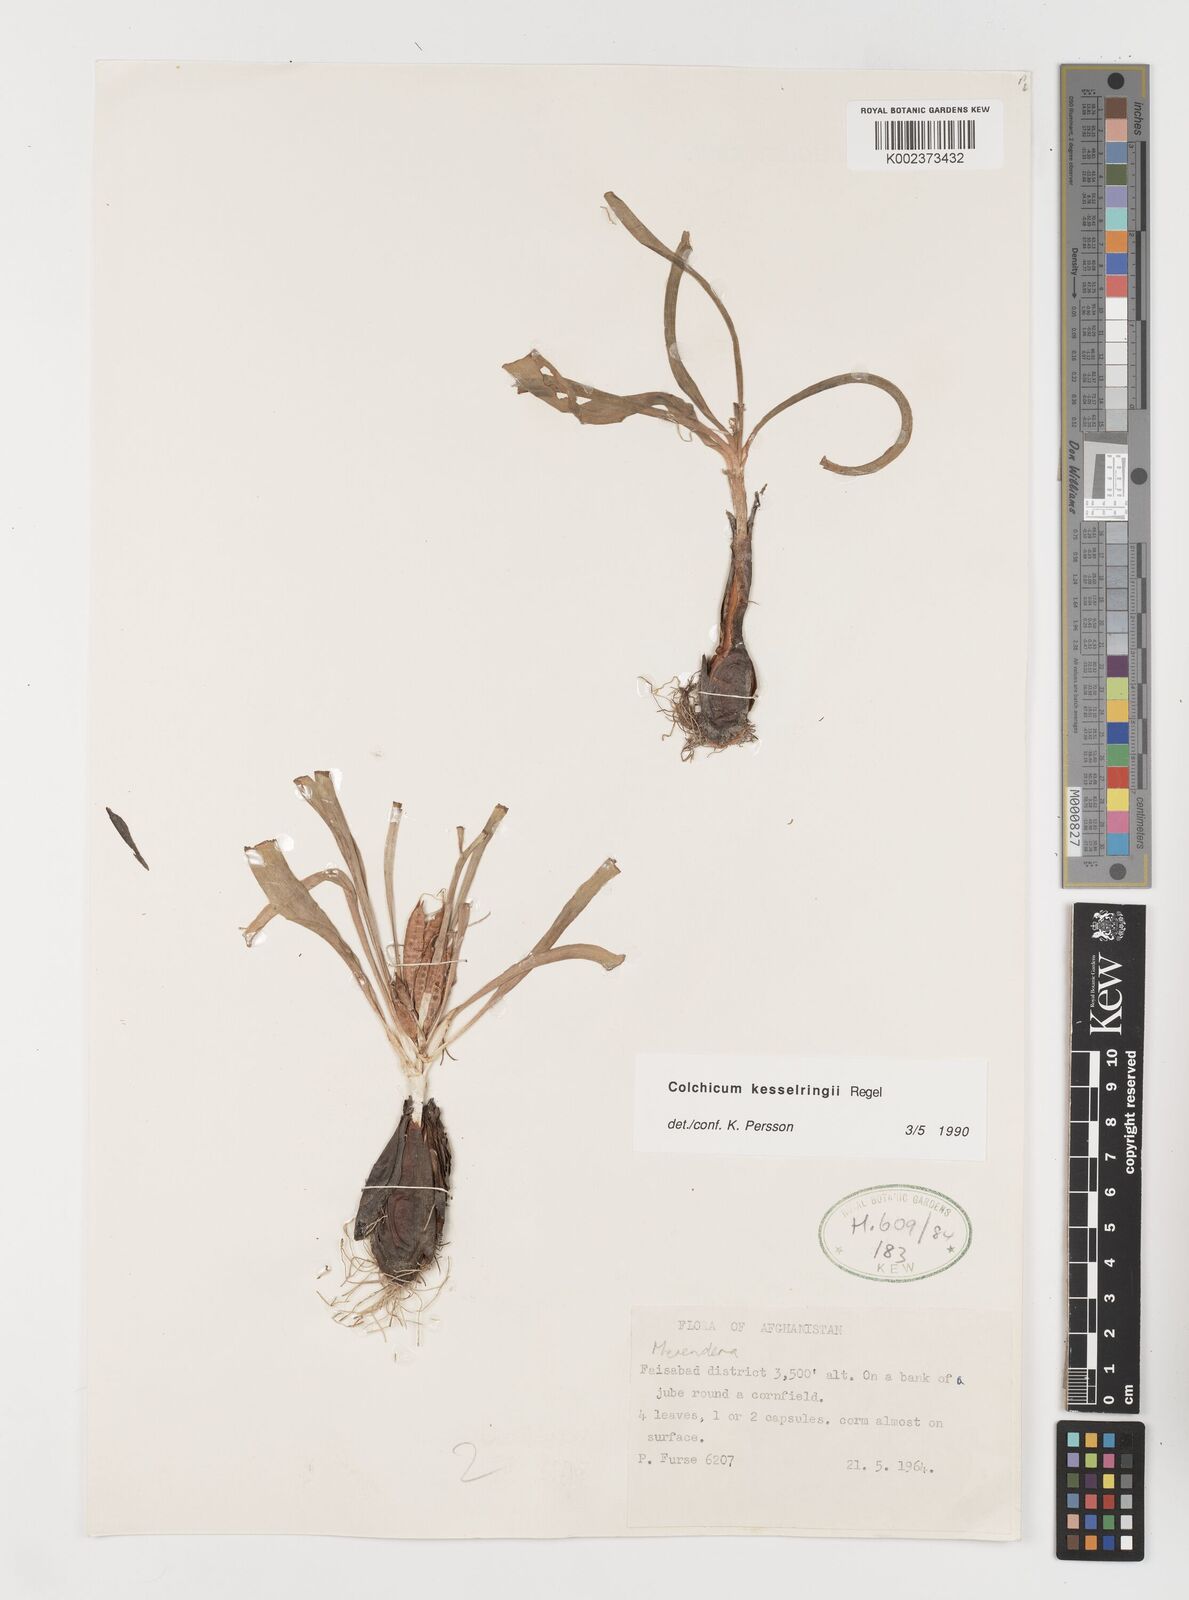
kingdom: Plantae
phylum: Tracheophyta
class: Liliopsida
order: Liliales
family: Colchicaceae
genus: Colchicum
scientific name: Colchicum kesselringii
